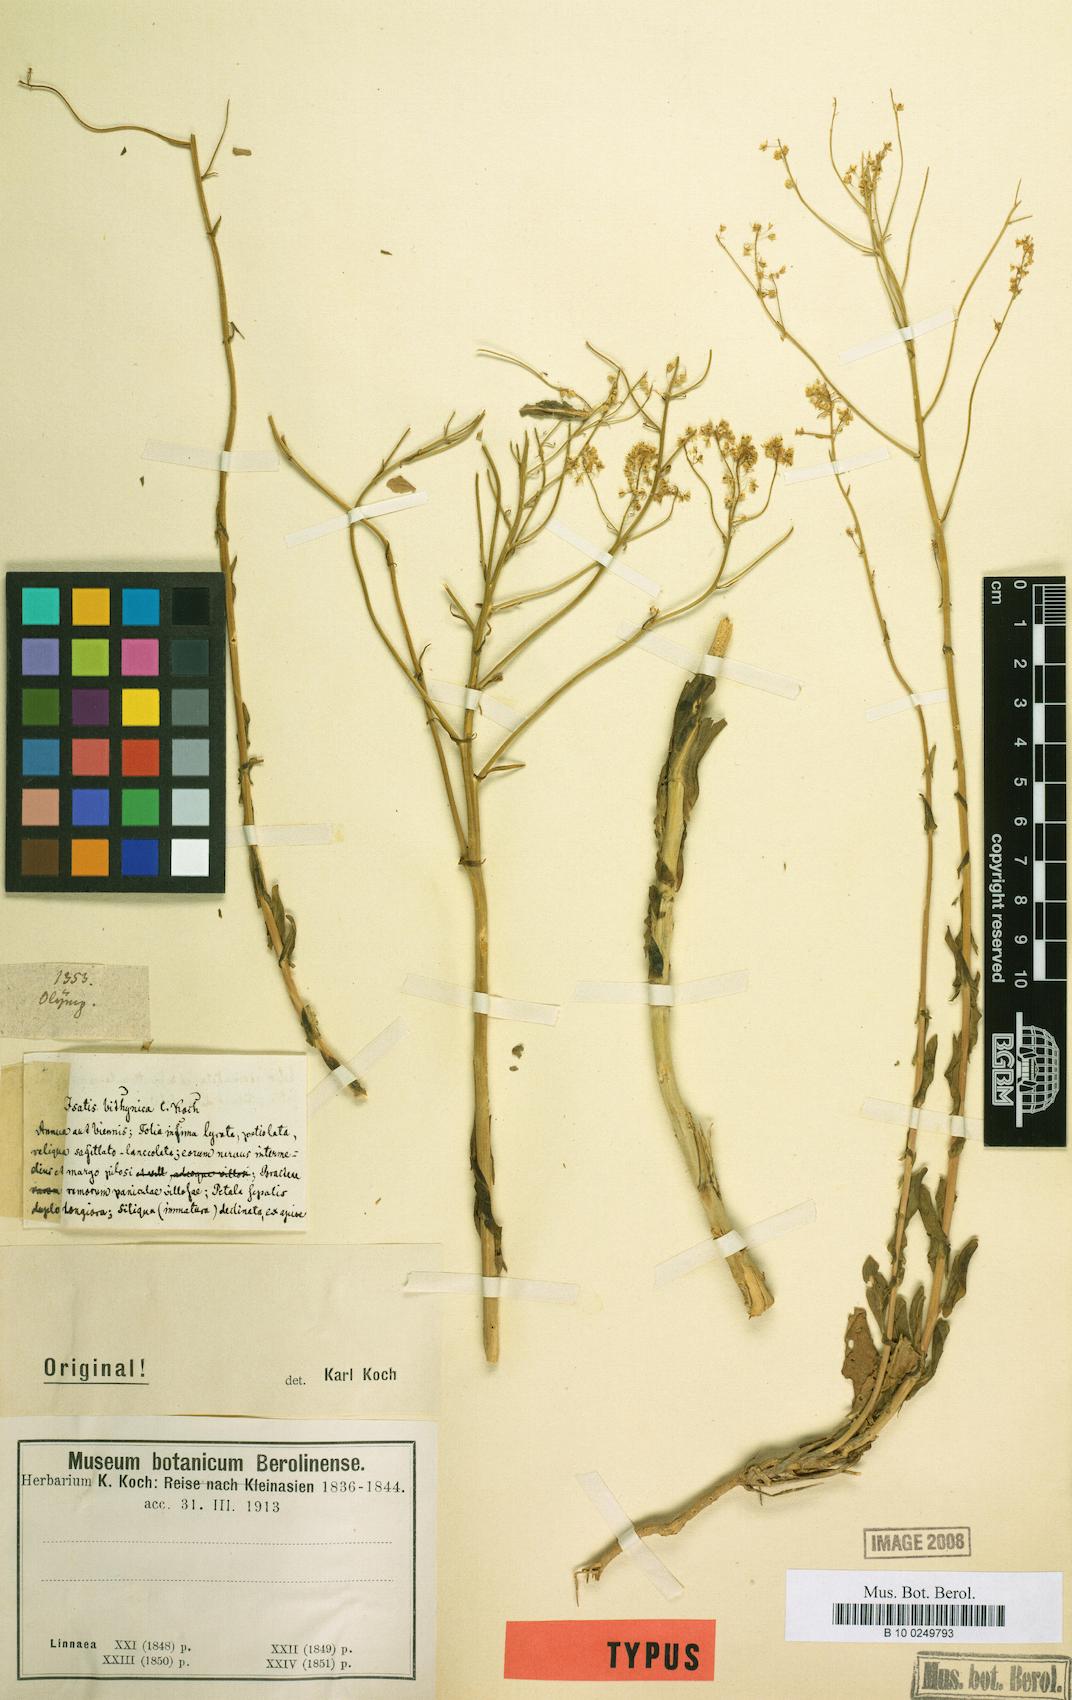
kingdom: Plantae
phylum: Tracheophyta
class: Magnoliopsida
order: Brassicales
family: Brassicaceae
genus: Isatis
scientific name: Isatis bitlisica
